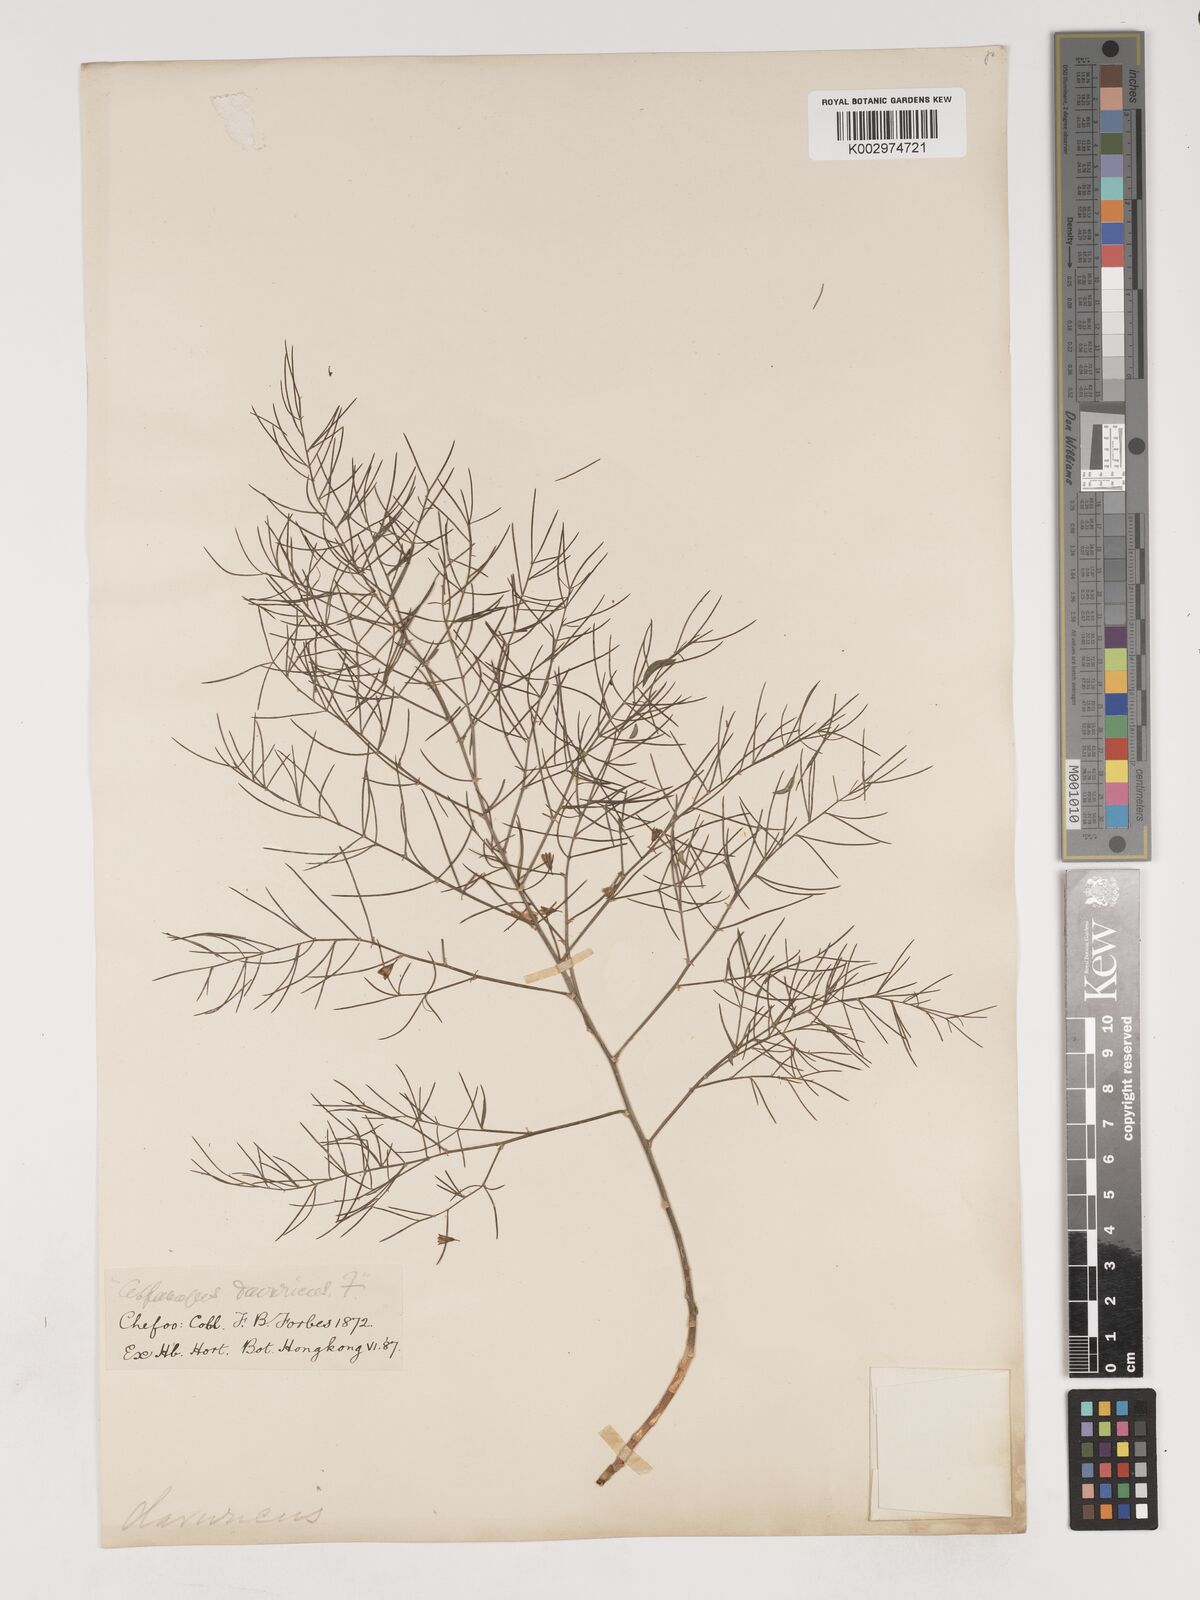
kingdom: Plantae
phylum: Tracheophyta
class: Liliopsida
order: Asparagales
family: Asparagaceae
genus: Asparagus
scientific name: Asparagus dauricus
